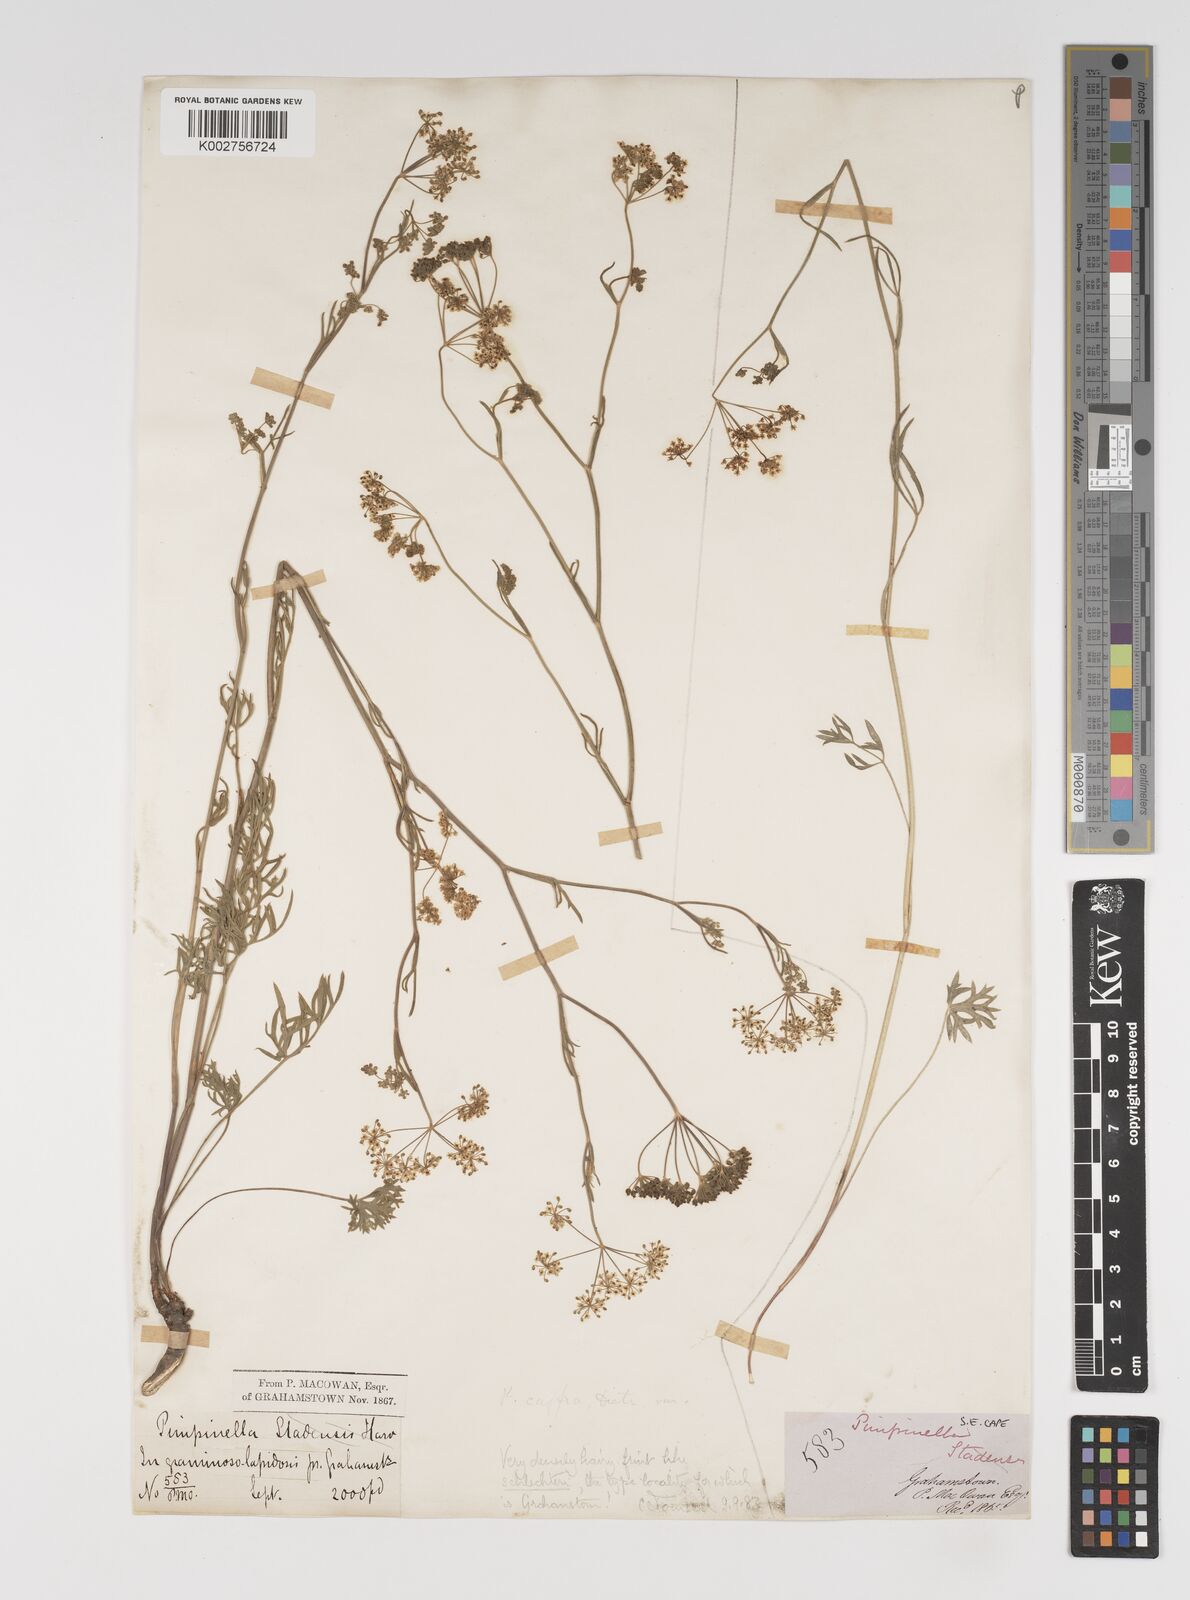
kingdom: Plantae
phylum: Tracheophyta
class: Magnoliopsida
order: Apiales
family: Apiaceae
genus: Pimpinella
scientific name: Pimpinella caffra
